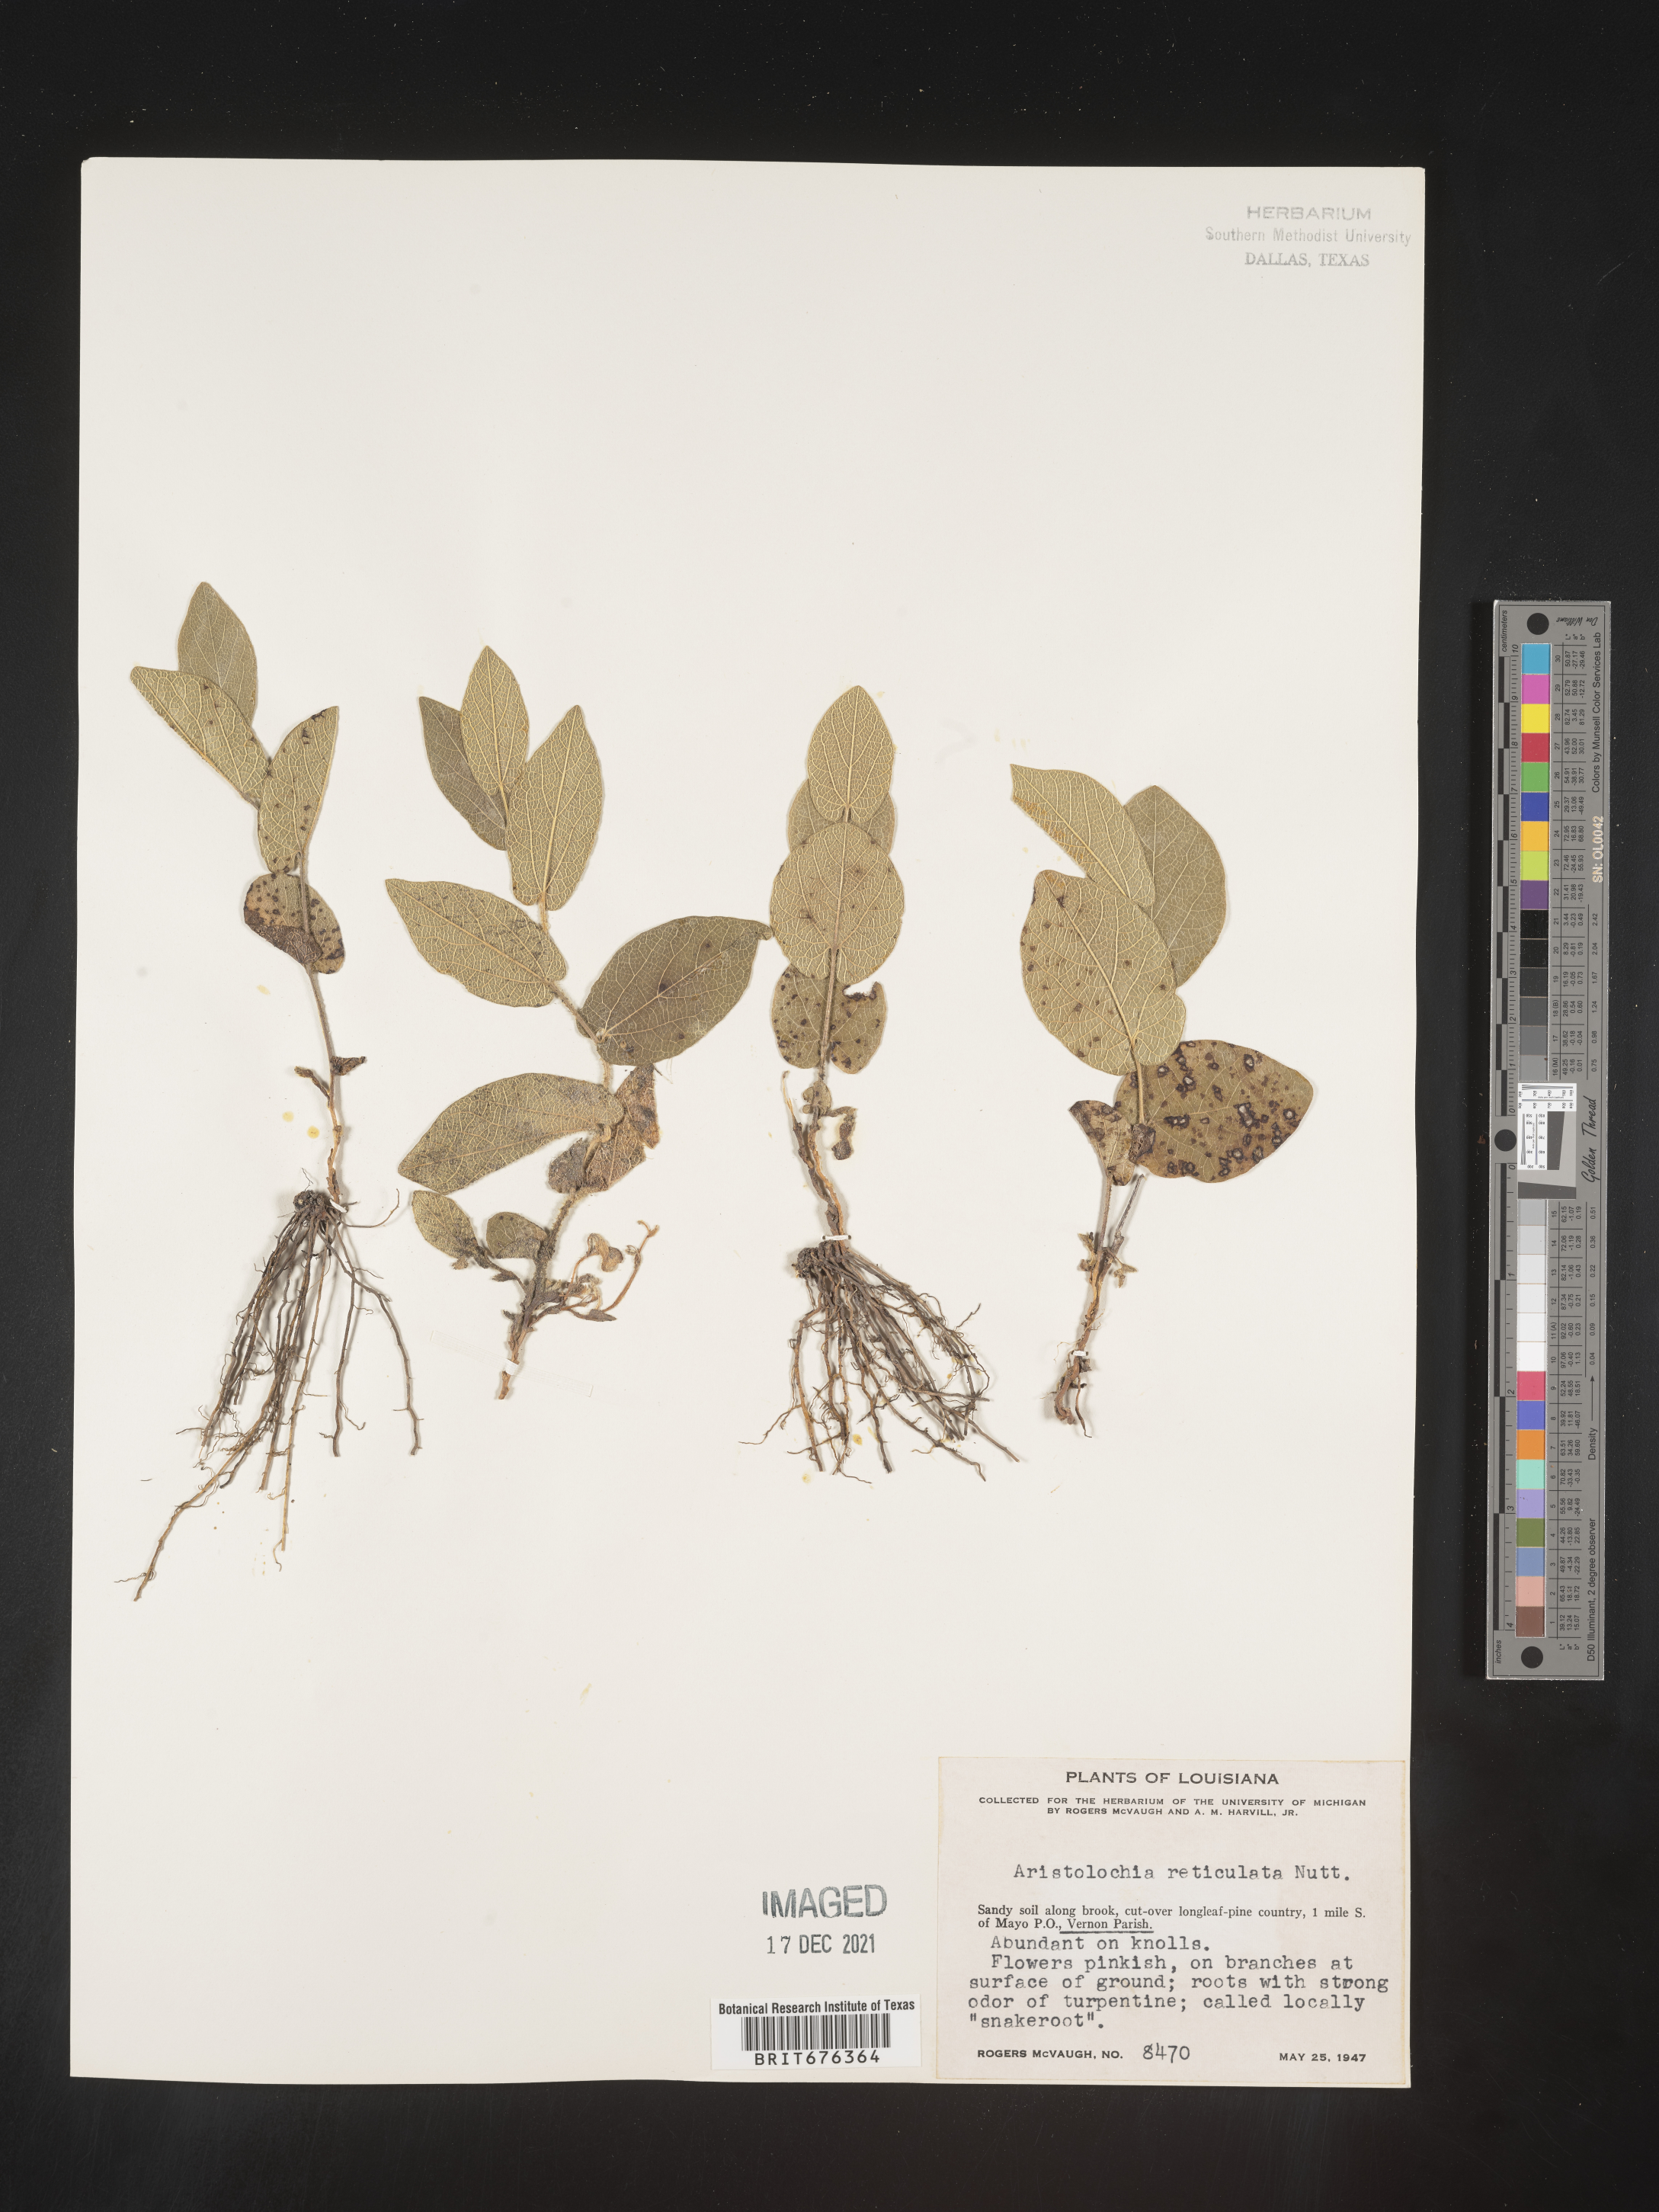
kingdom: Plantae
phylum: Tracheophyta
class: Magnoliopsida
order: Piperales
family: Aristolochiaceae
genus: Aristolochia
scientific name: Aristolochia
